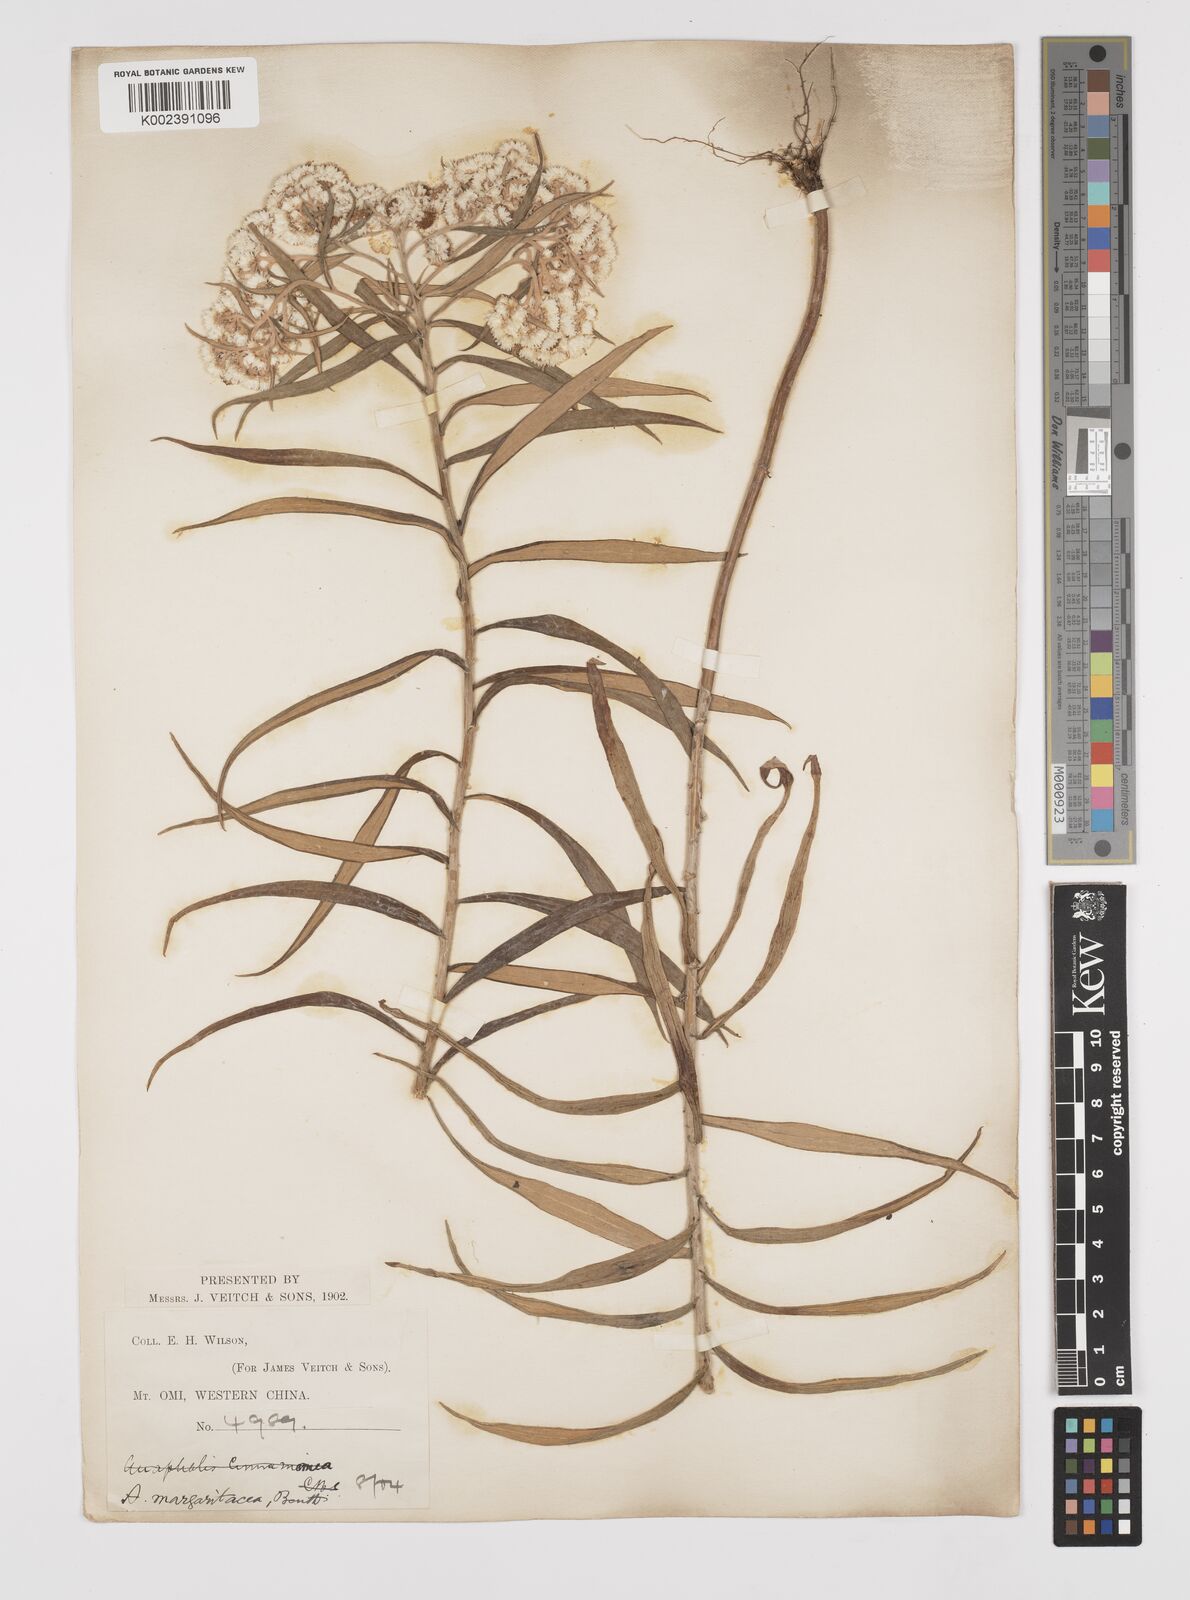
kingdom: Plantae
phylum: Tracheophyta
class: Magnoliopsida
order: Asterales
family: Asteraceae
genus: Anaphalis
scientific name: Anaphalis margaritacea
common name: Pearly everlasting
